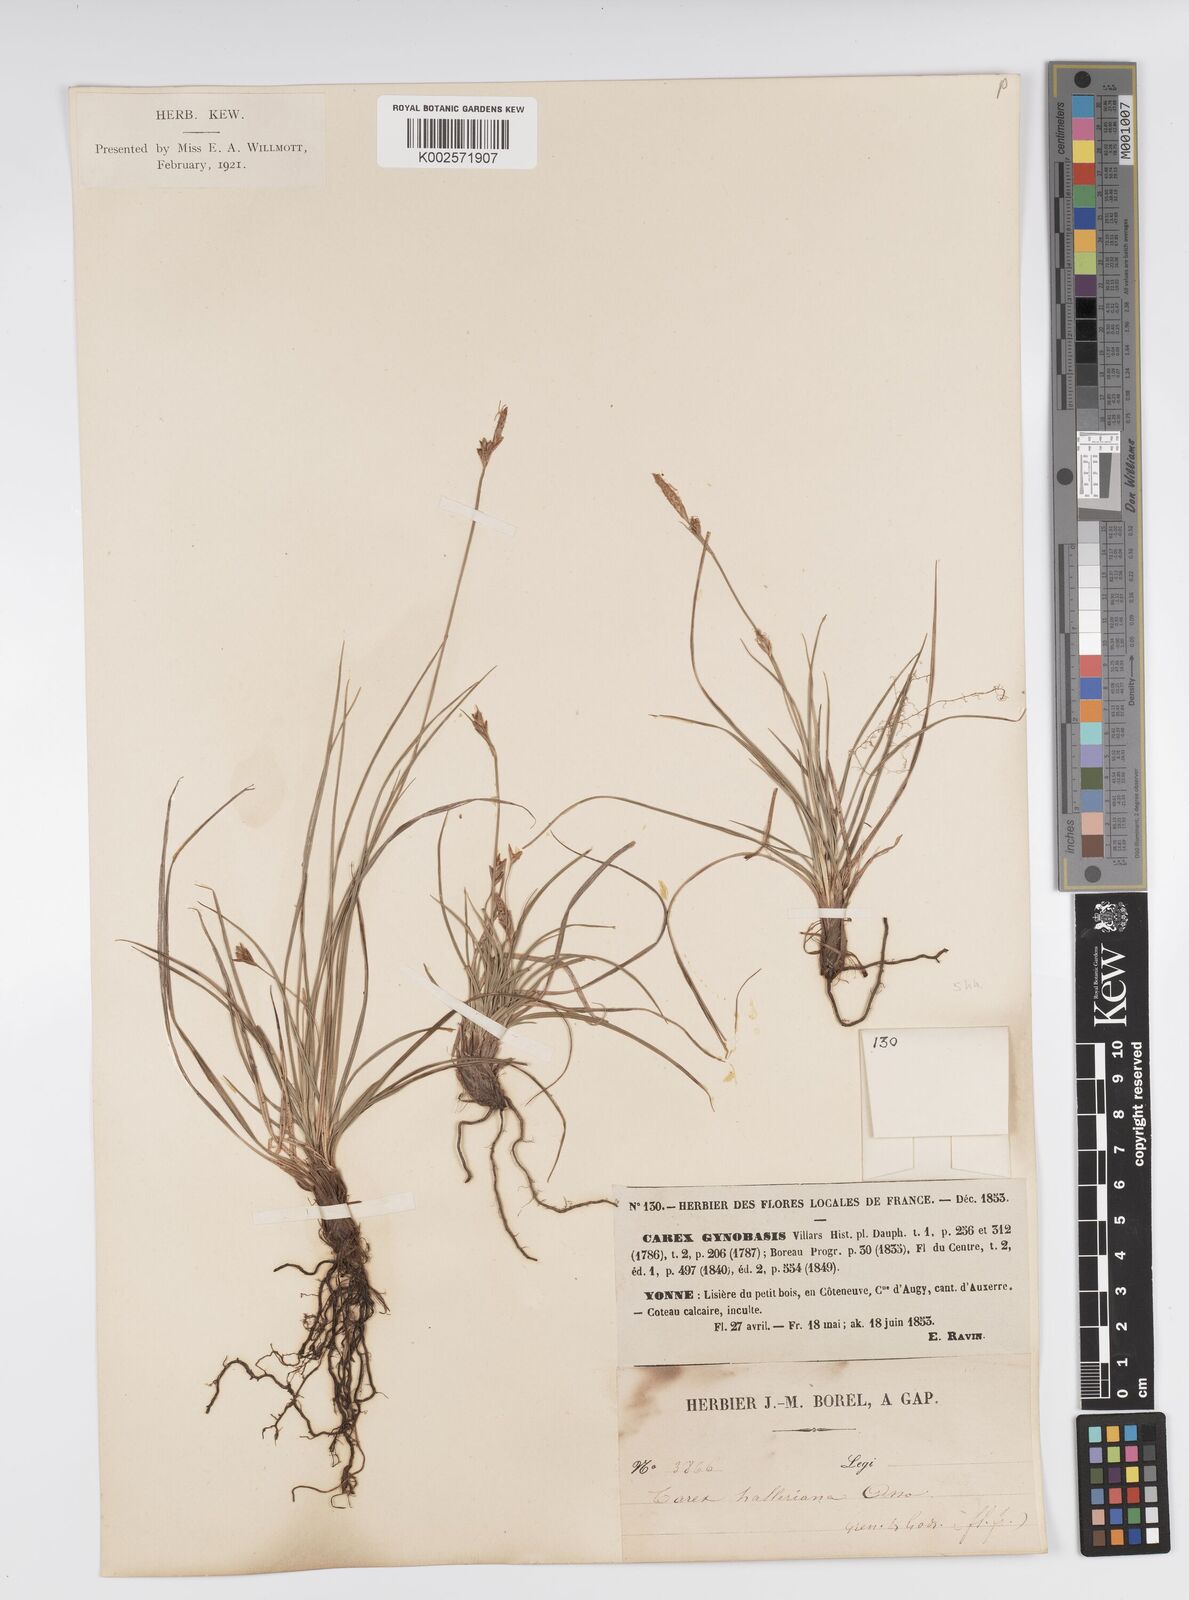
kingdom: Plantae
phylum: Tracheophyta
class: Liliopsida
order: Poales
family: Cyperaceae
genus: Carex
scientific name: Carex halleriana
